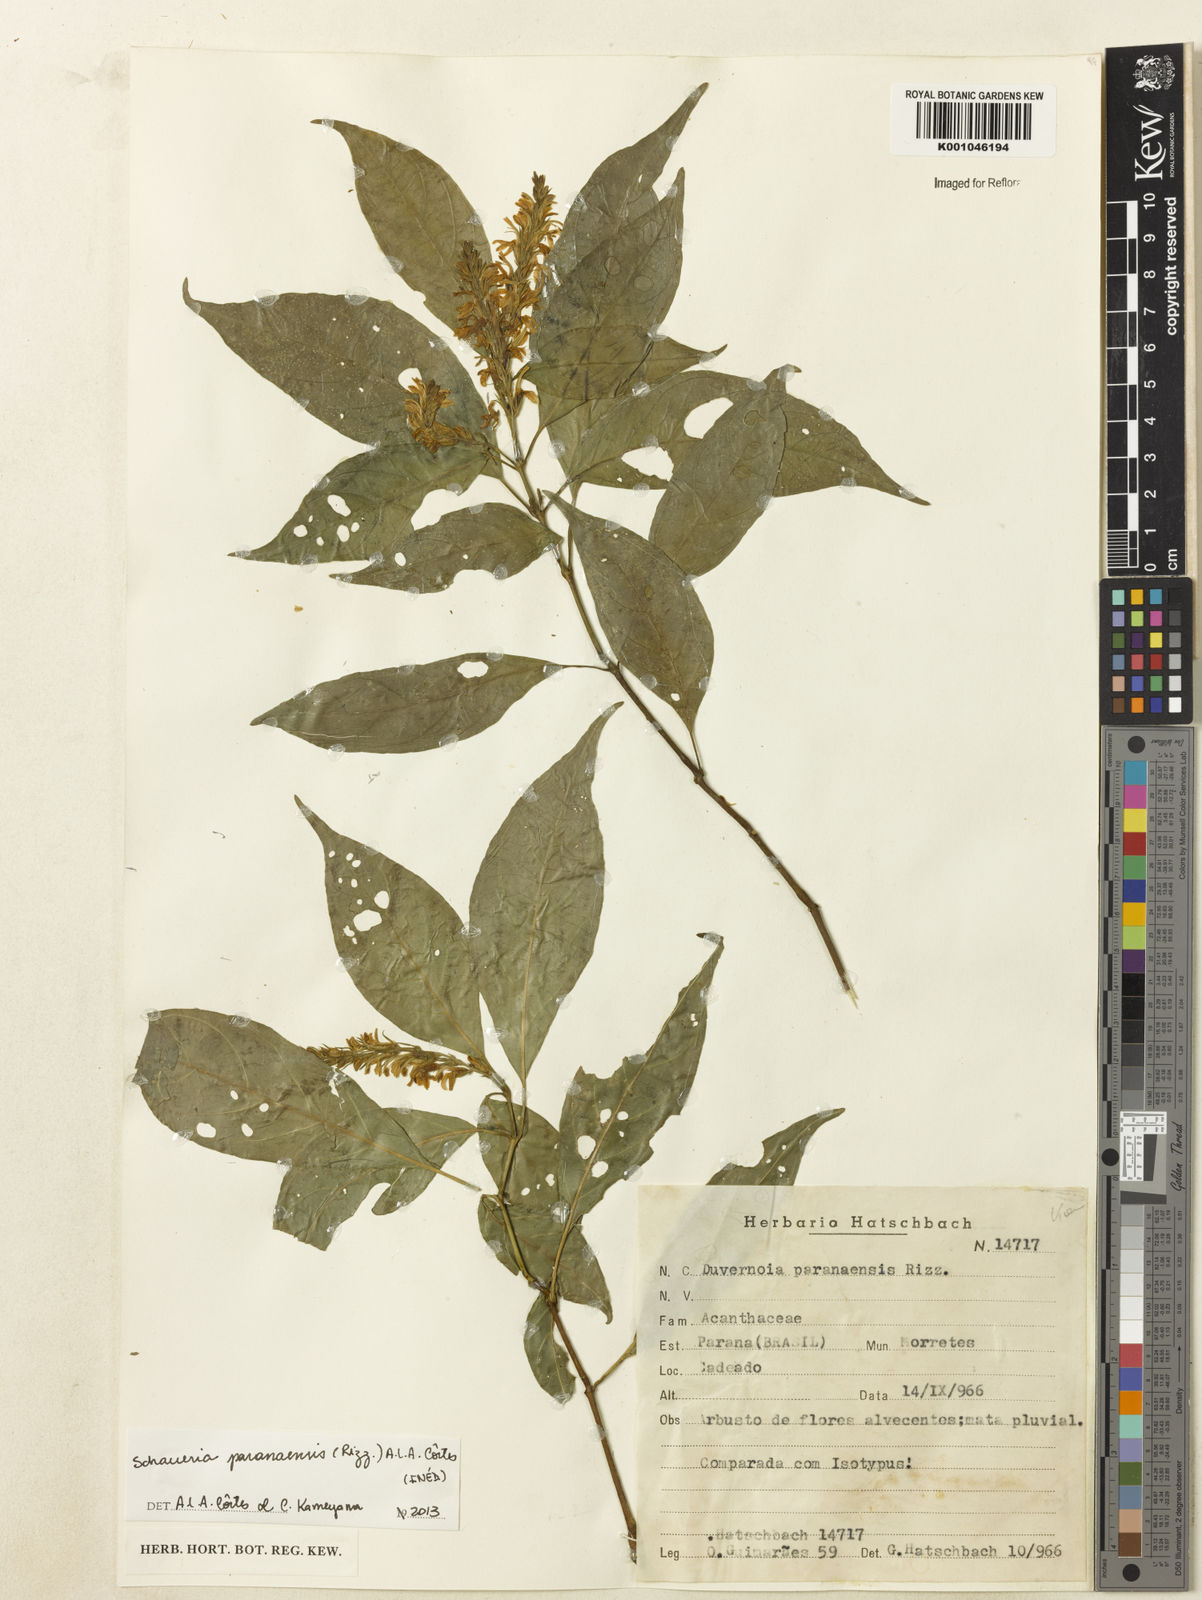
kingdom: Plantae
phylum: Tracheophyta
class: Magnoliopsida
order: Lamiales
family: Acanthaceae
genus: Schaueria
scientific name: Schaueria paranaensis
